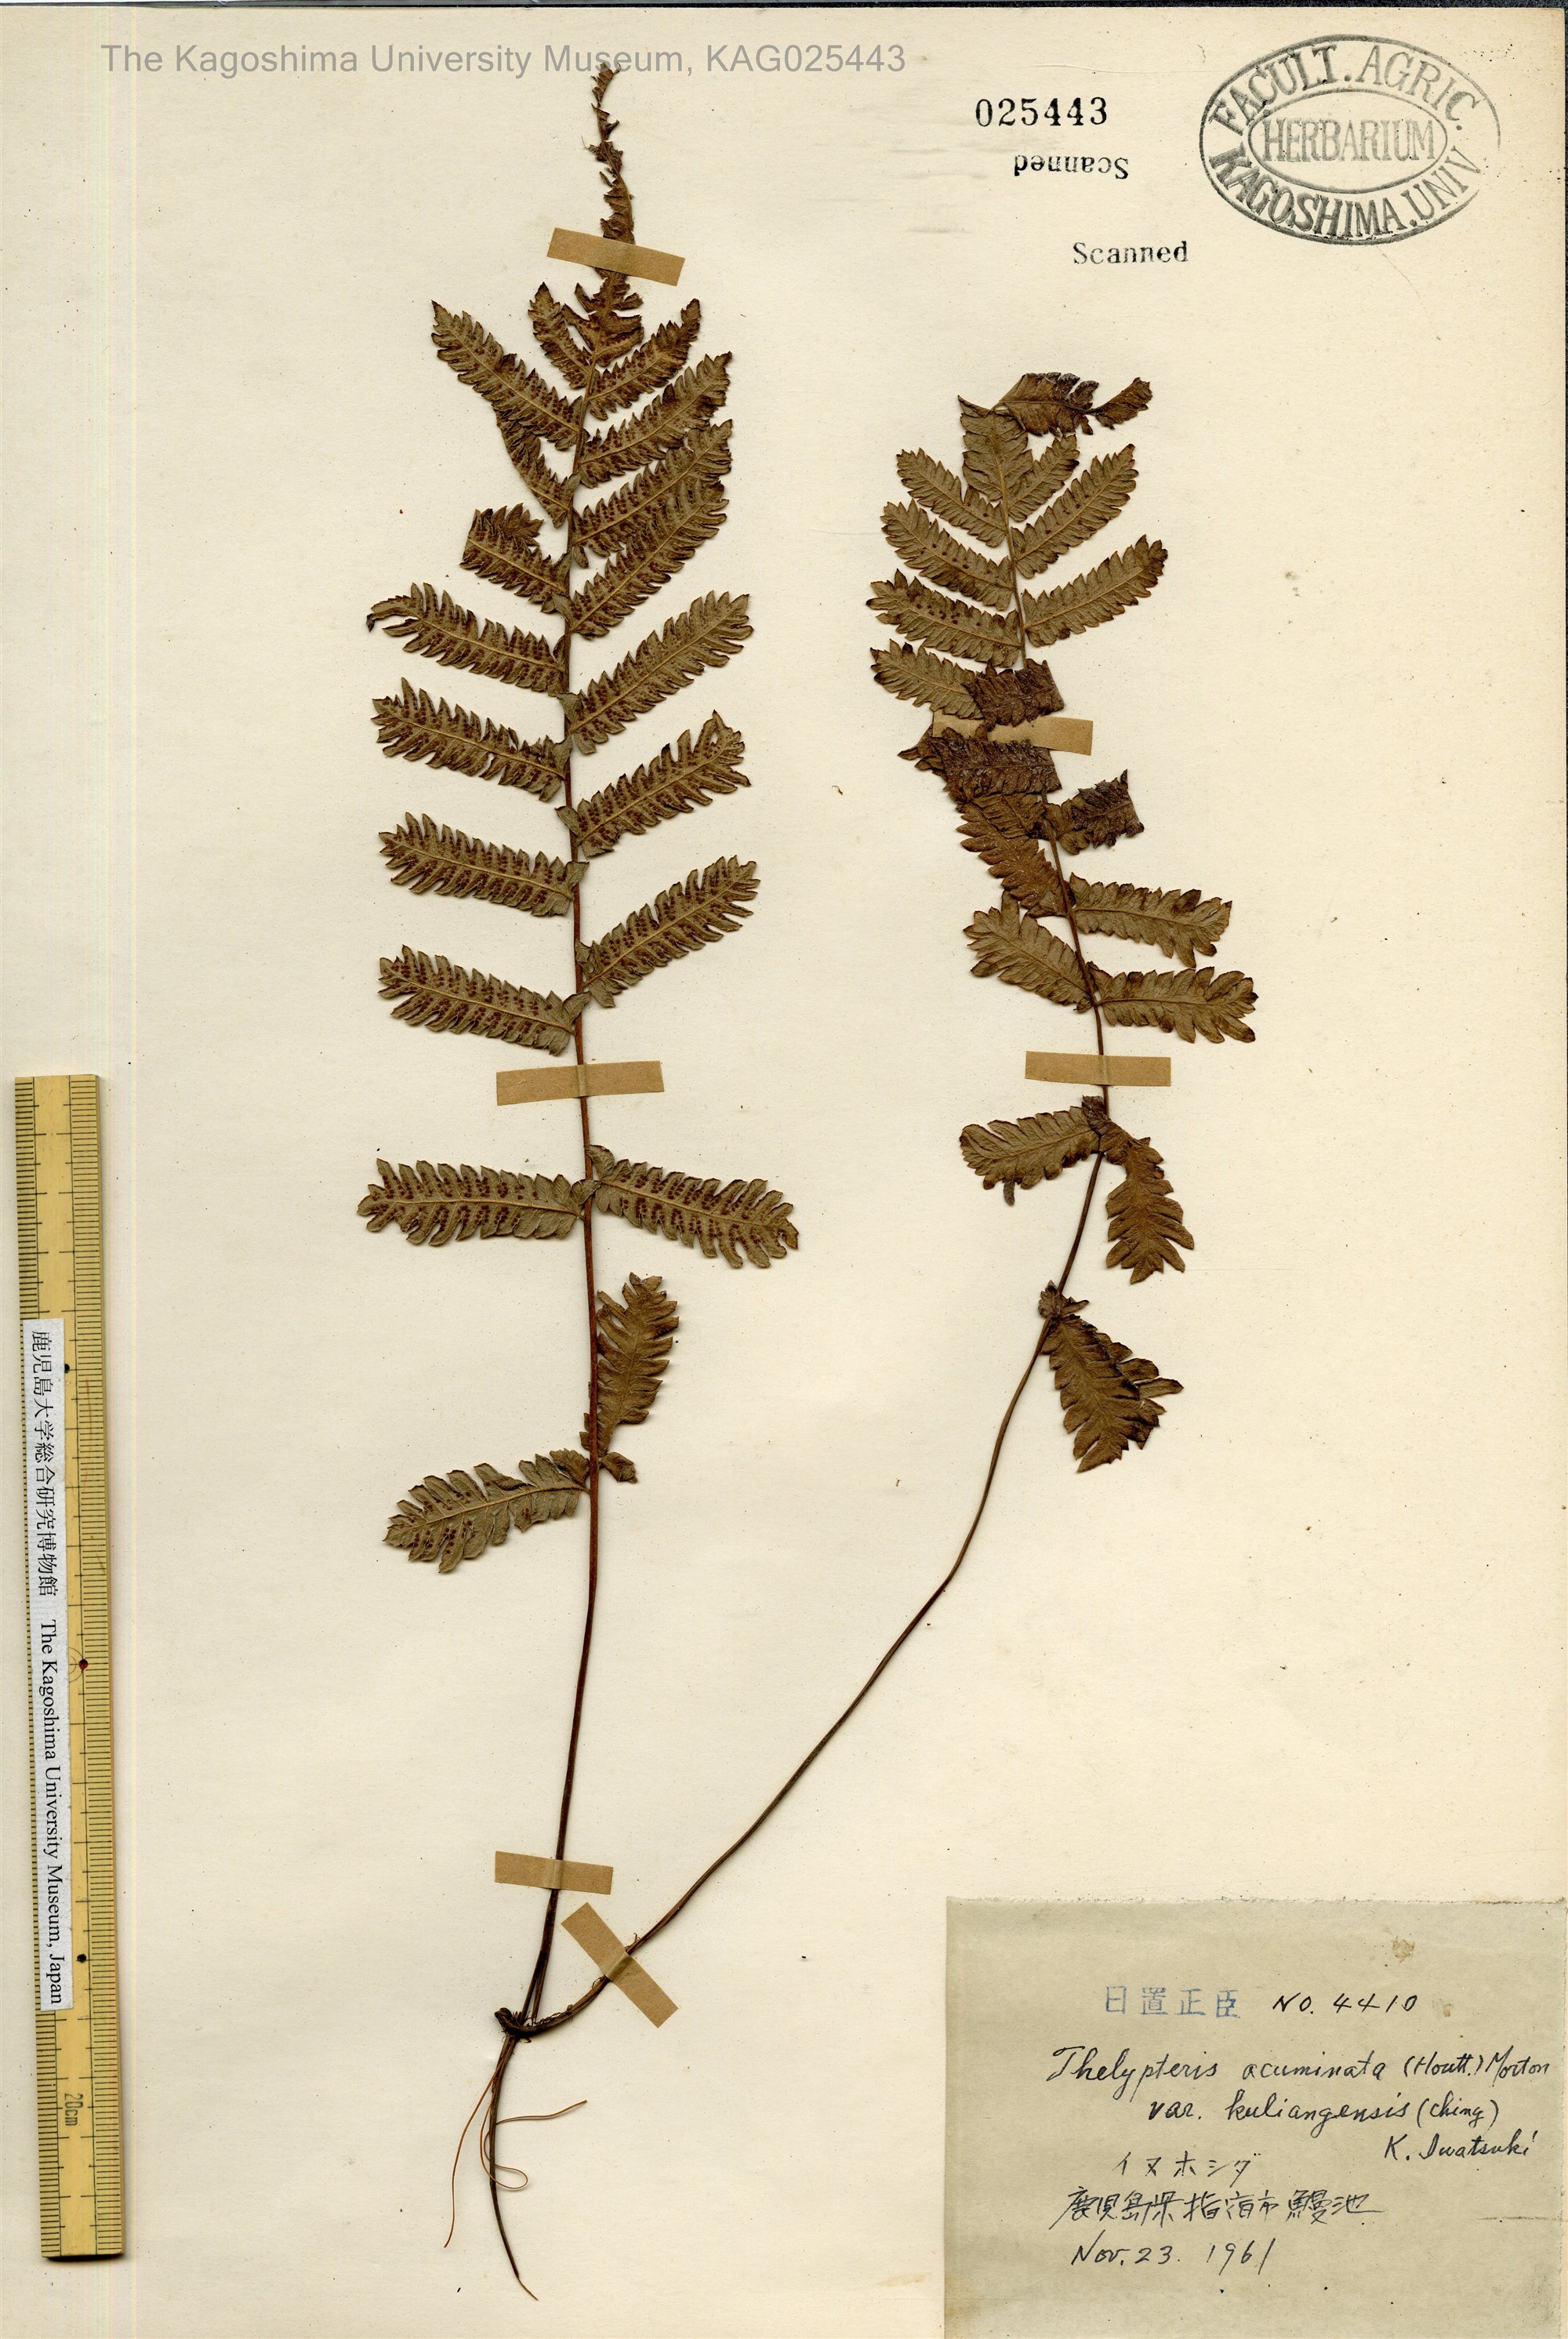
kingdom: Plantae
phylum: Tracheophyta
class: Polypodiopsida
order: Polypodiales
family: Thelypteridaceae
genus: Christella
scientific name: Christella ensifera
